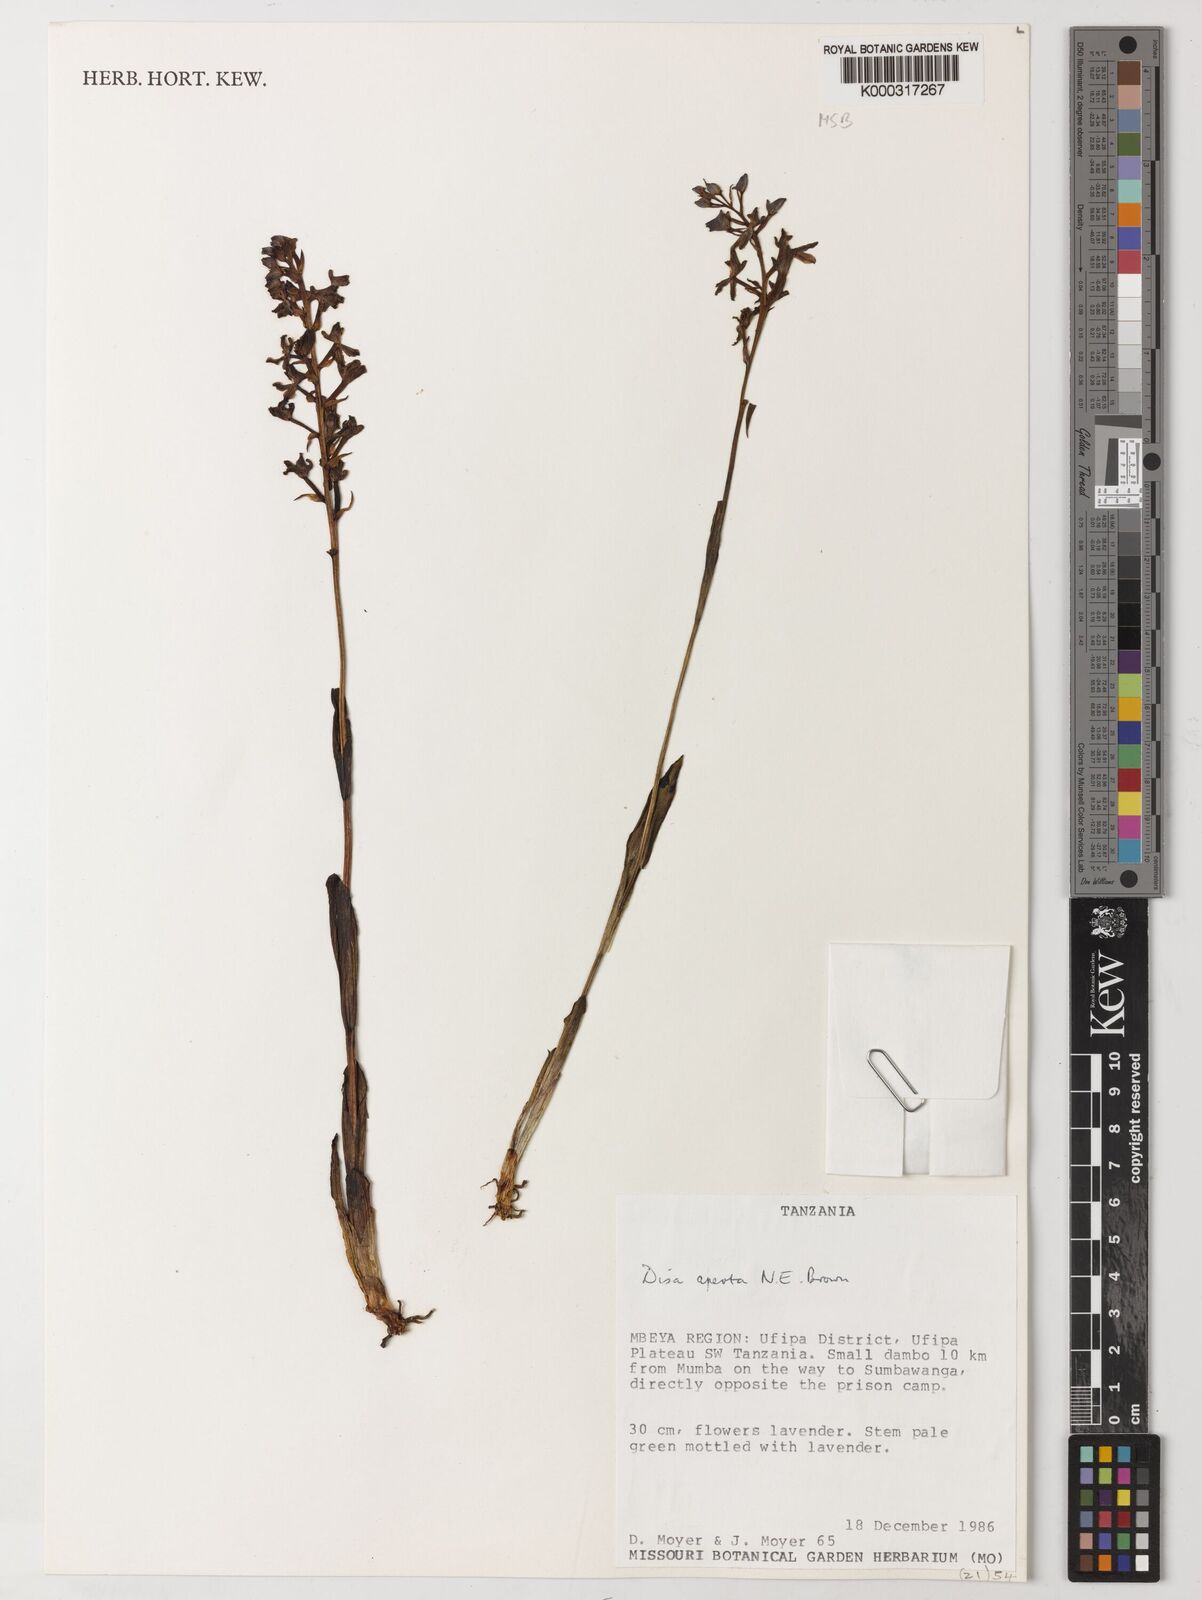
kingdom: Plantae
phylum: Tracheophyta
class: Liliopsida
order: Asparagales
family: Orchidaceae
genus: Disa
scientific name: Disa aperta
